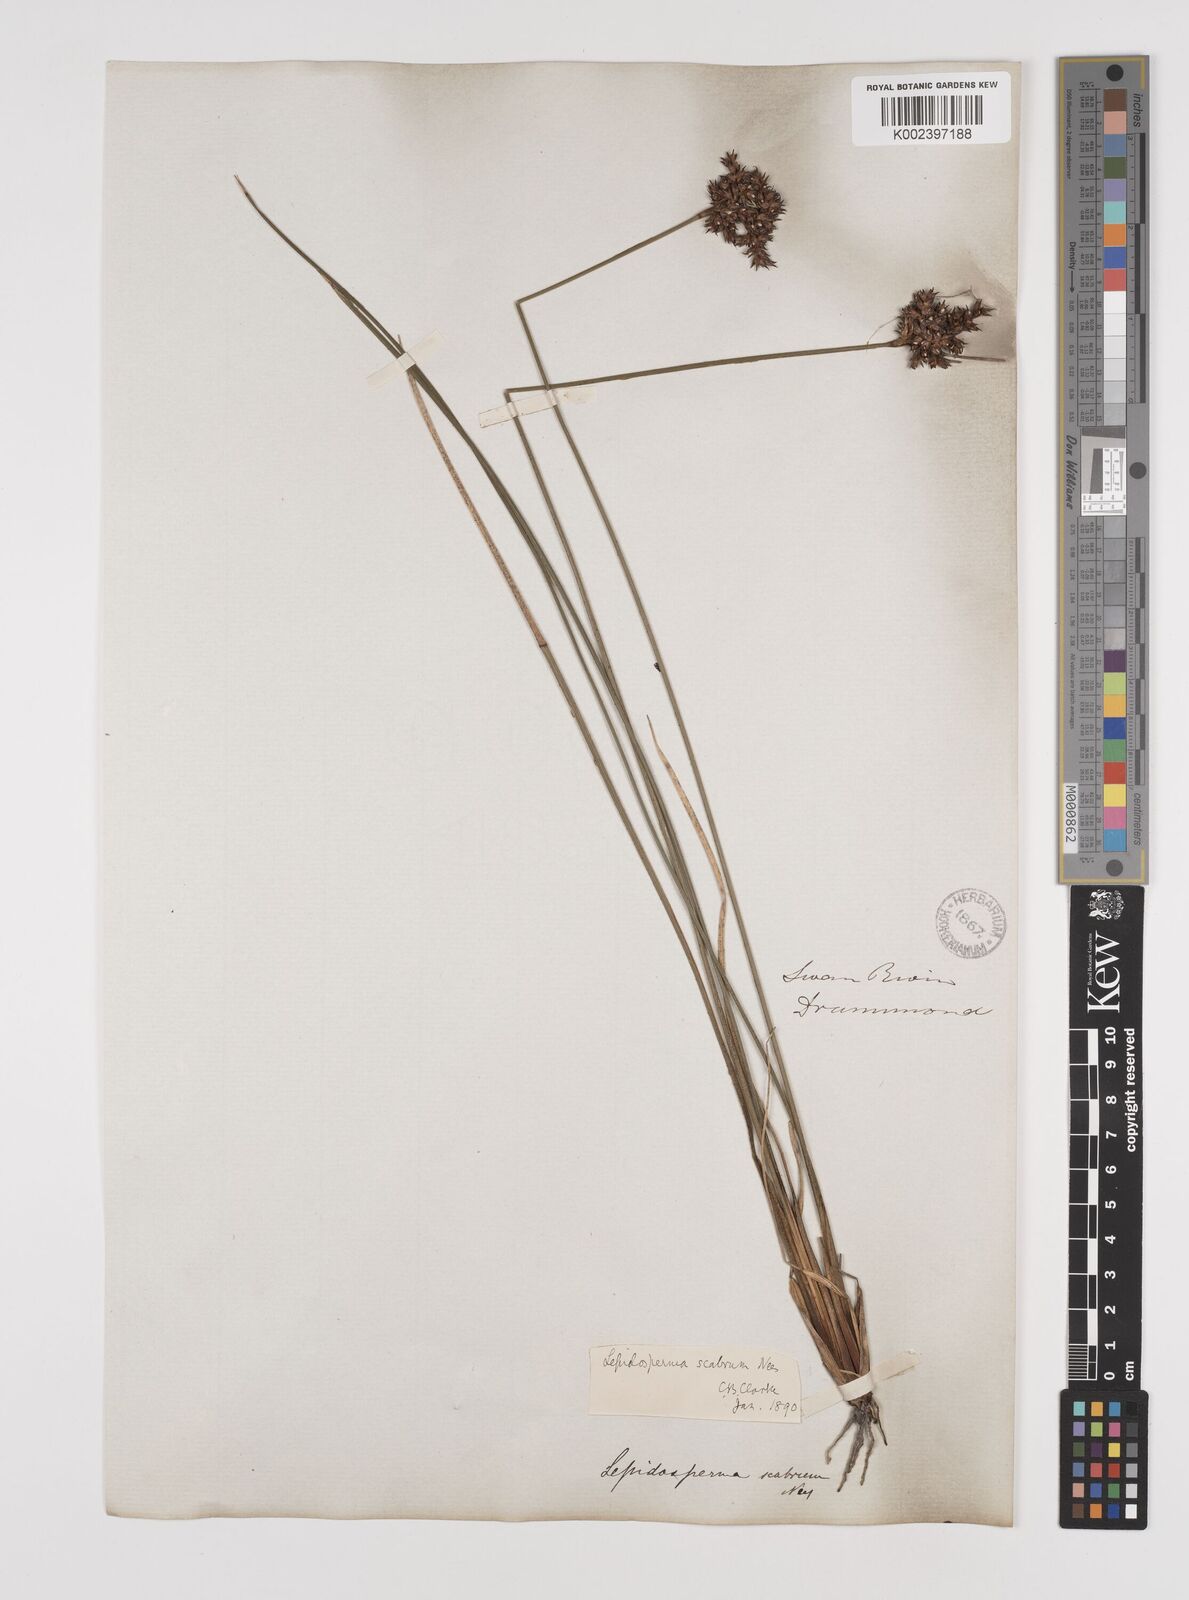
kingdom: Plantae
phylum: Tracheophyta
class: Liliopsida
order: Poales
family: Cyperaceae
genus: Lepidosperma
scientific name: Lepidosperma scabrum
